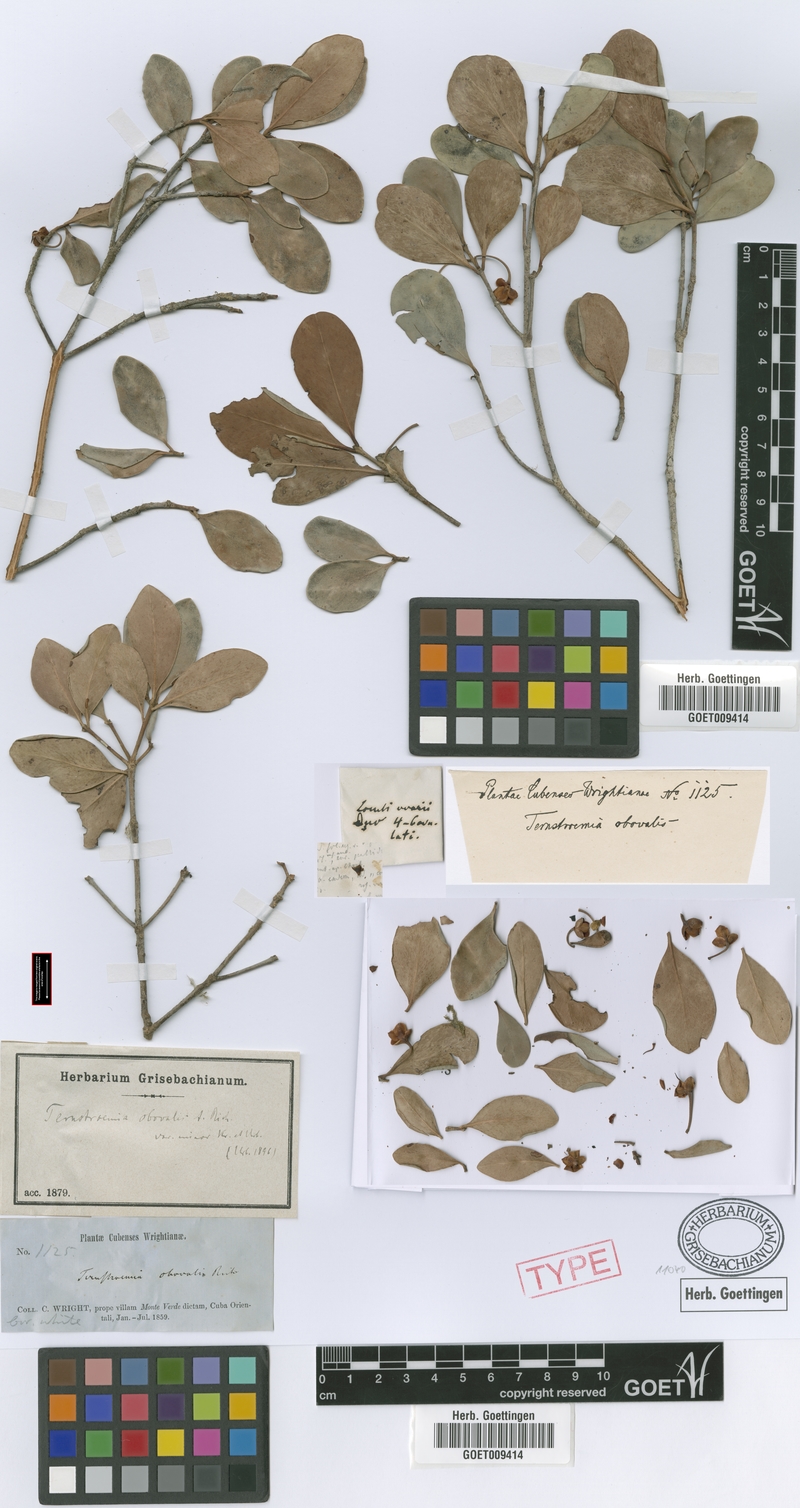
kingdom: Plantae
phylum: Tracheophyta
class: Magnoliopsida
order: Ericales
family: Pentaphylacaceae
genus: Ternstroemia
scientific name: Ternstroemia peduncularis
